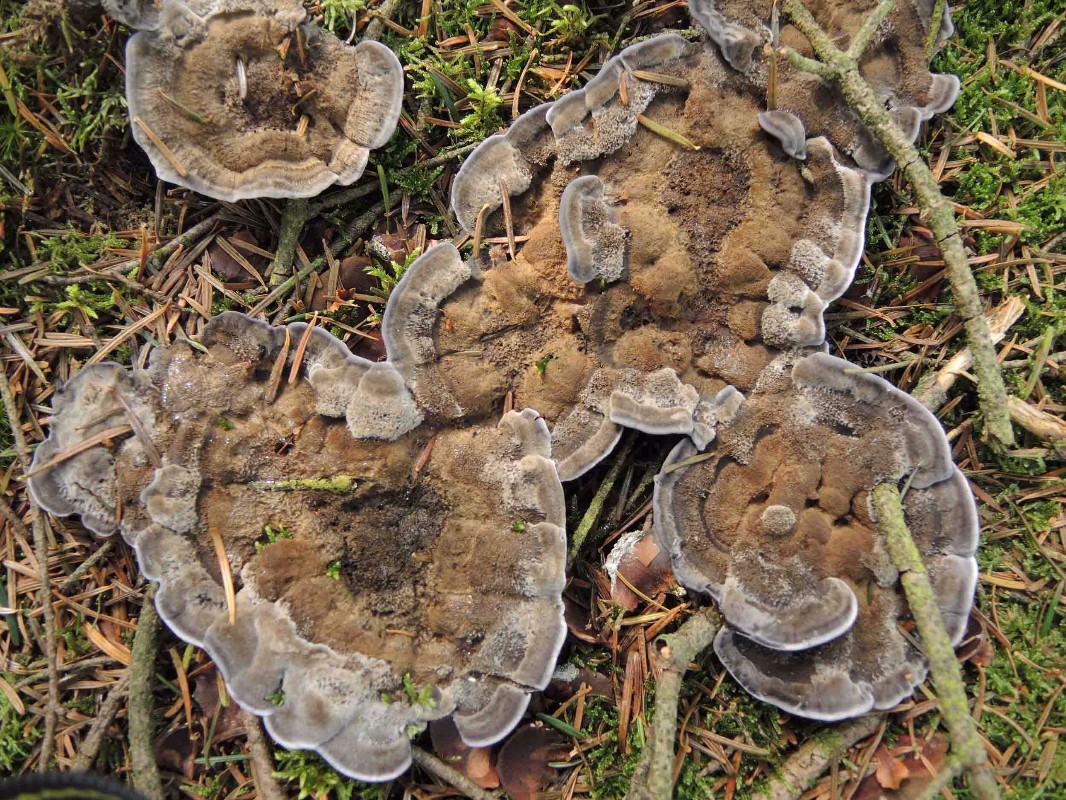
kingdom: Fungi
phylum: Basidiomycota
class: Agaricomycetes
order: Thelephorales
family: Bankeraceae
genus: Hydnellum
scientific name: Hydnellum caeruleum
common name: blålig korkpigsvamp
